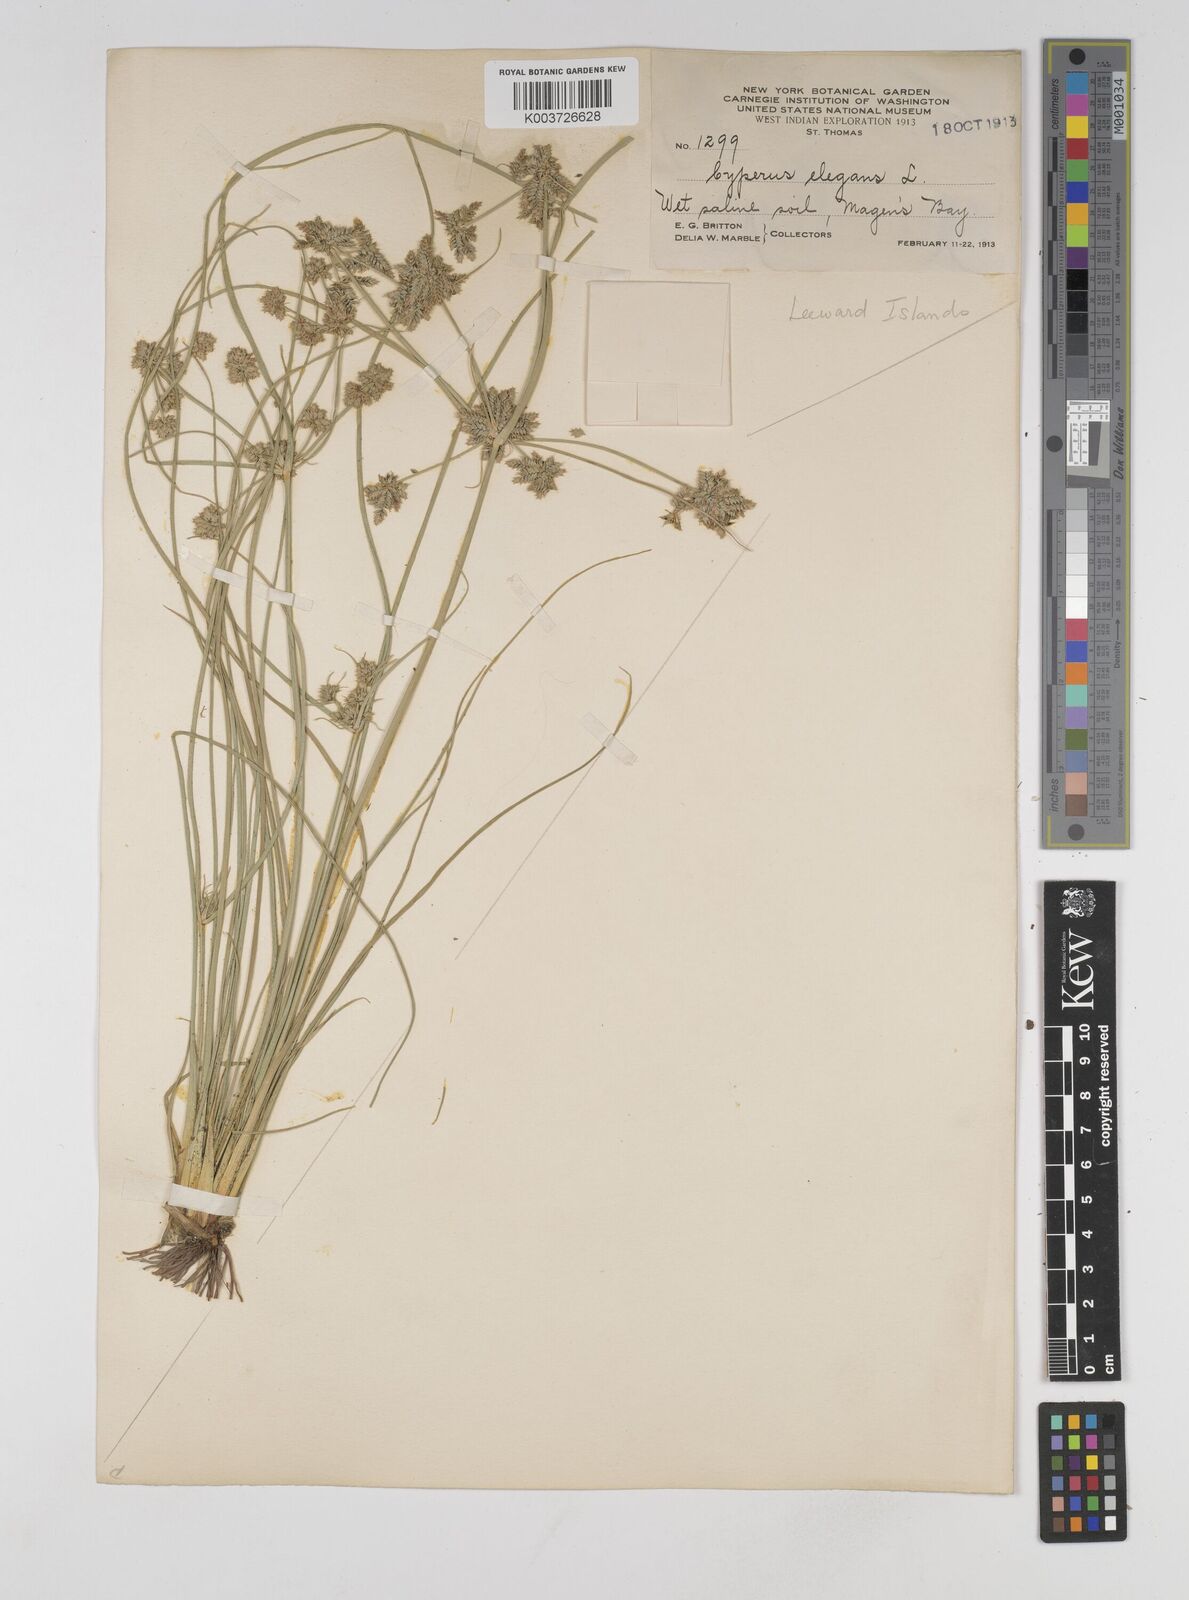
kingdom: Plantae
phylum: Tracheophyta
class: Liliopsida
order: Poales
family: Cyperaceae
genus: Cyperus
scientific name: Cyperus elegans
